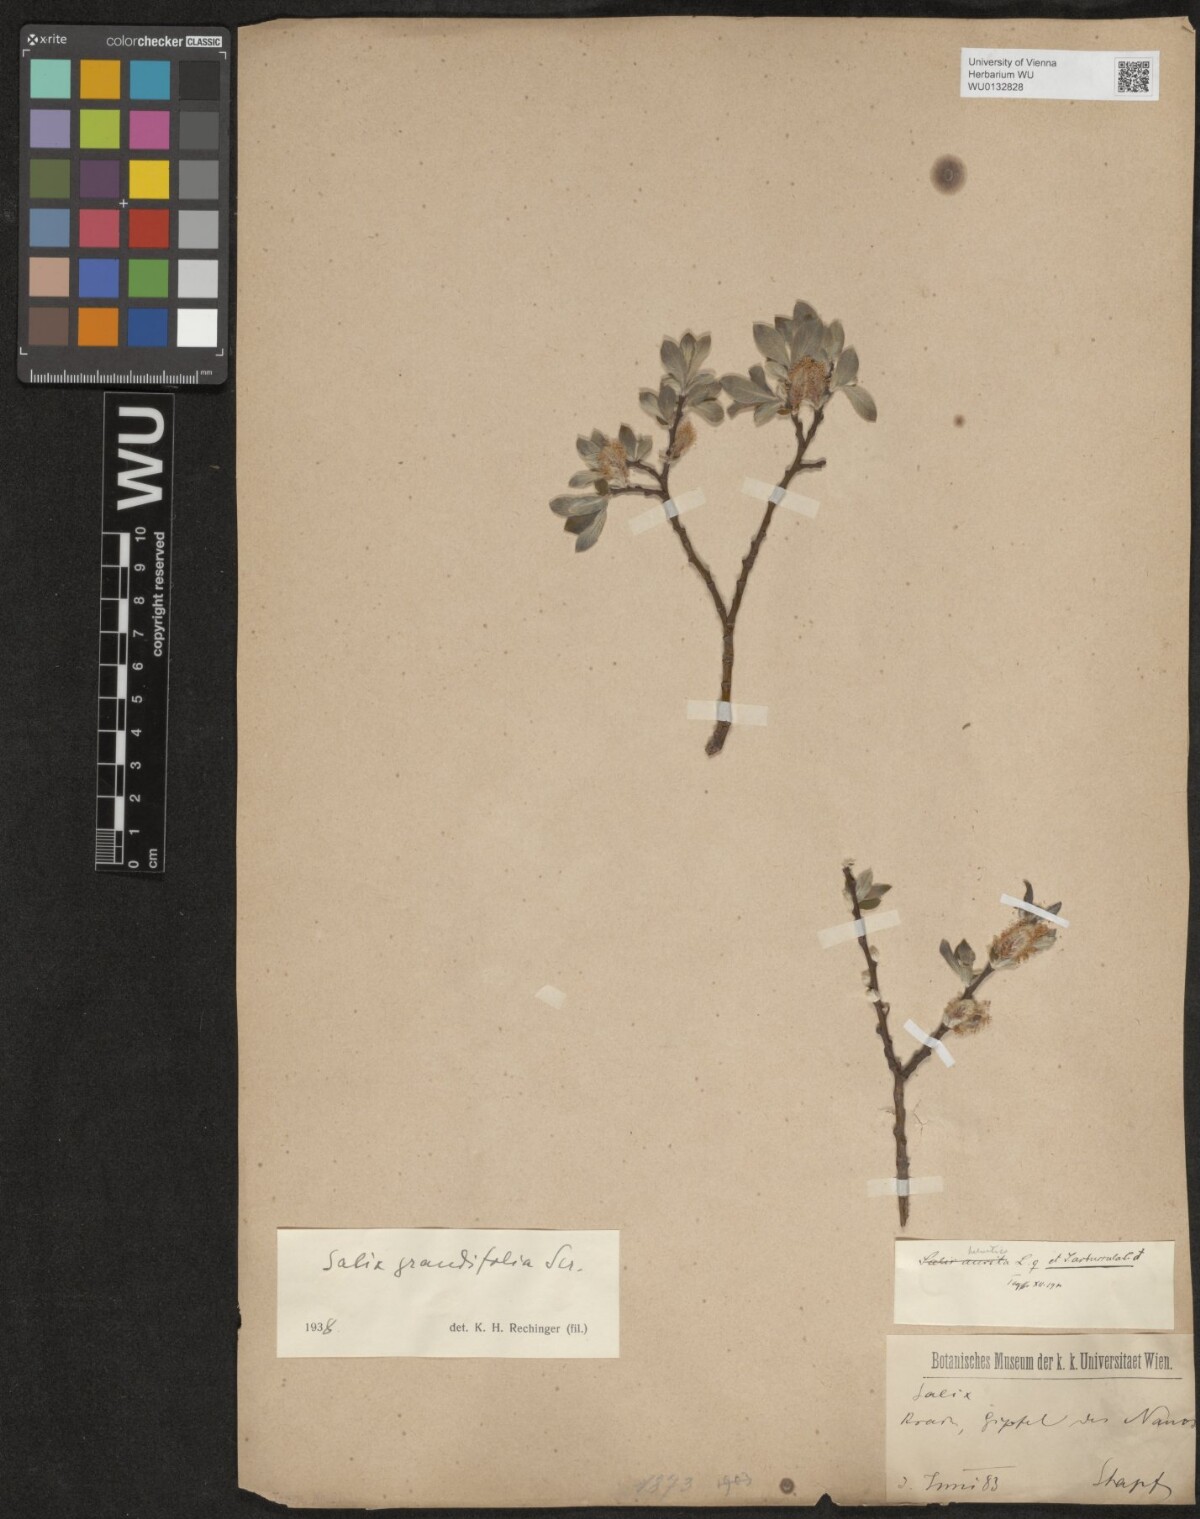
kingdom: Plantae
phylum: Tracheophyta
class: Magnoliopsida
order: Malpighiales
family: Salicaceae
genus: Salix
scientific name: Salix appendiculata
